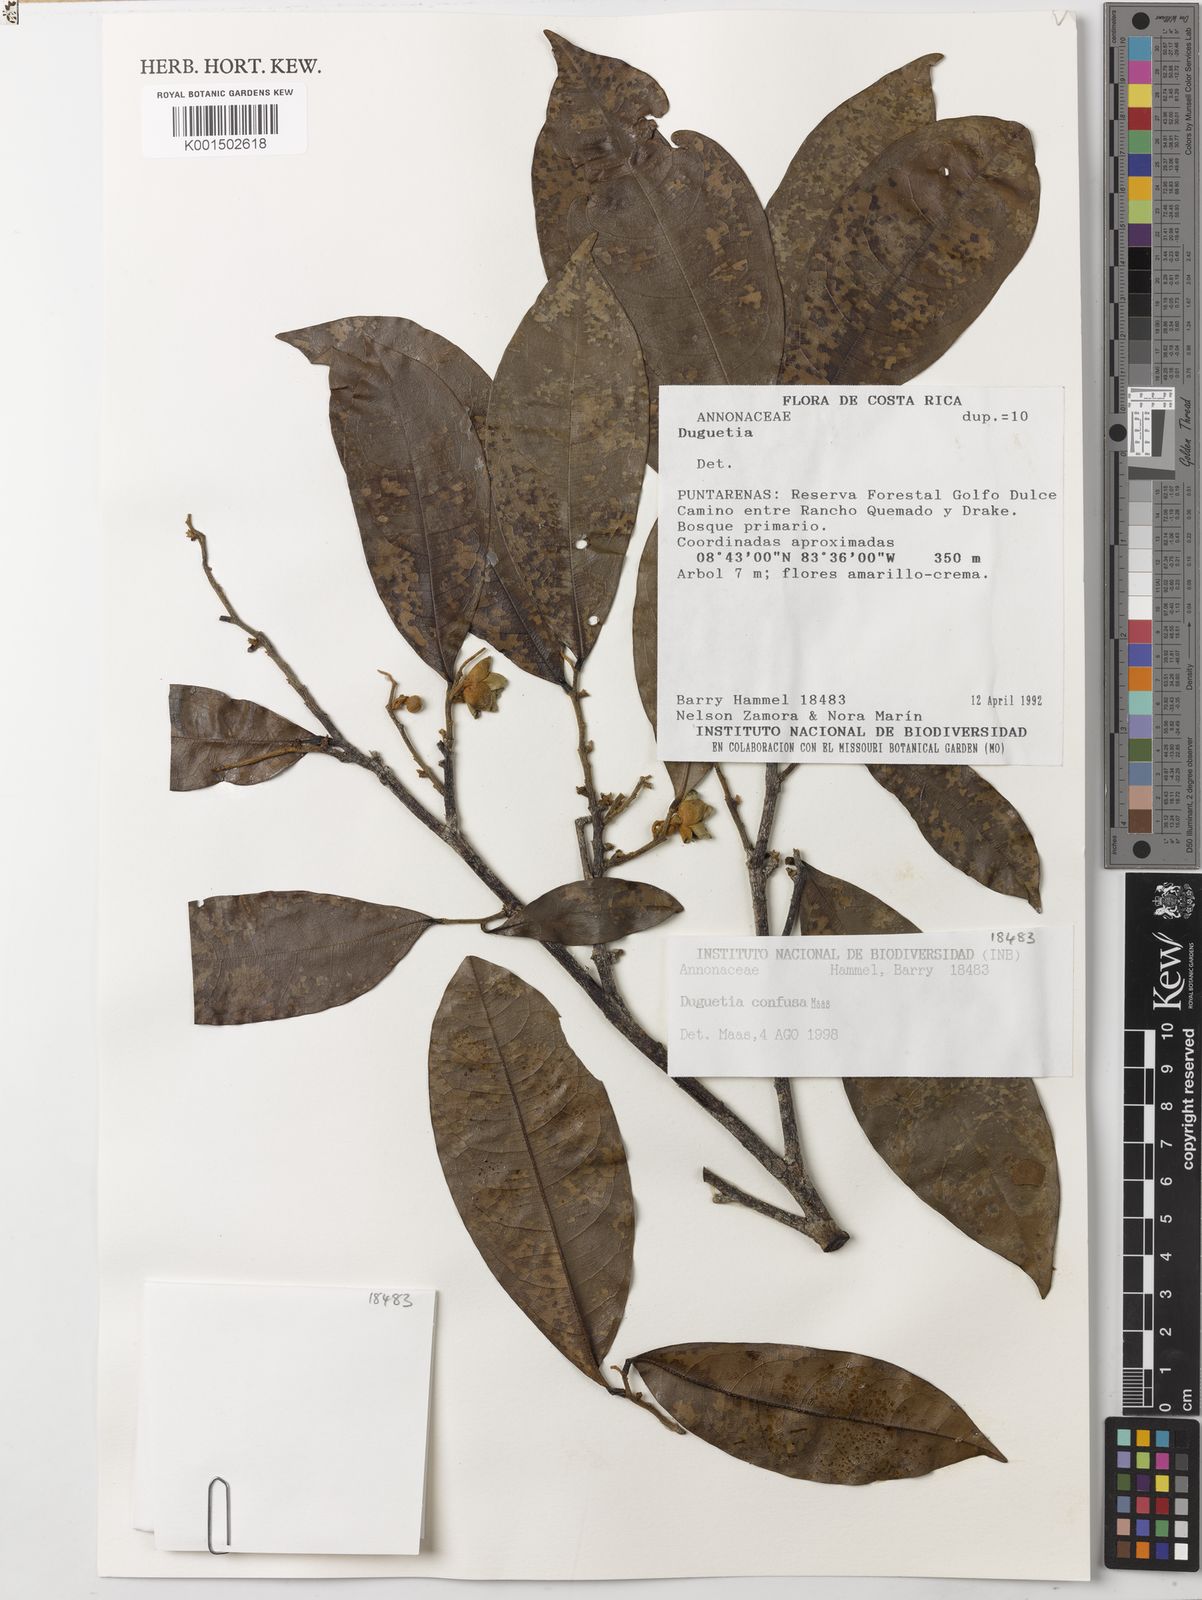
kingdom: Plantae
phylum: Tracheophyta
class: Magnoliopsida
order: Magnoliales
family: Annonaceae
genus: Duguetia
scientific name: Duguetia confusa
